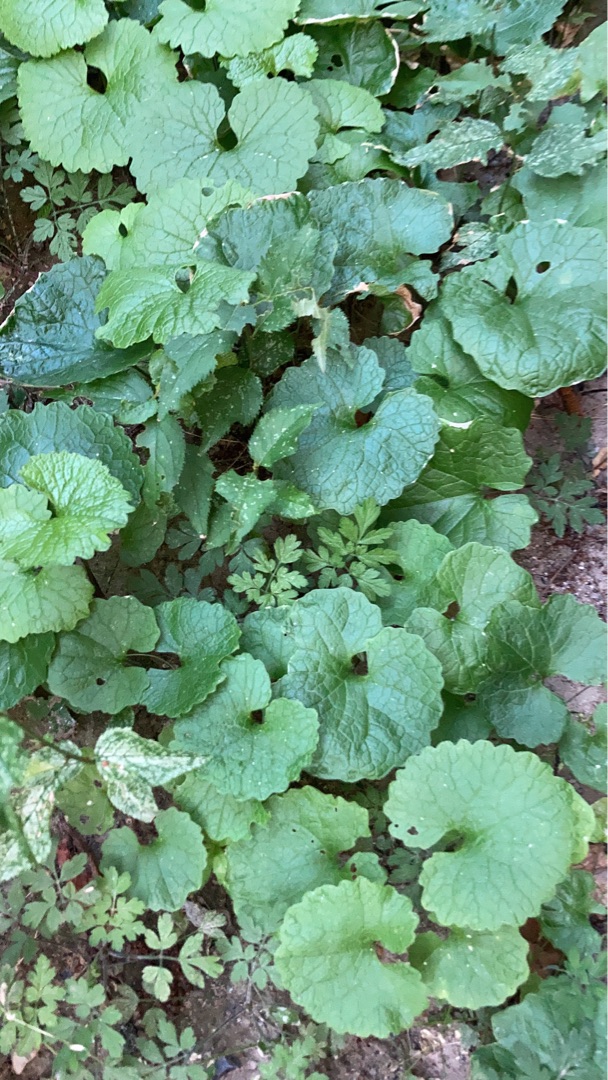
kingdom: Plantae
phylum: Tracheophyta
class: Magnoliopsida
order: Brassicales
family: Brassicaceae
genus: Alliaria
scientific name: Alliaria petiolata
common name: Løgkarse
